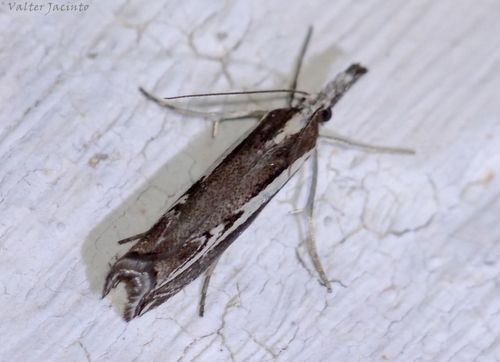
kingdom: Animalia
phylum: Arthropoda
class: Insecta
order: Lepidoptera
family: Crambidae
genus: Catoptria
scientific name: Catoptria staudingeri
